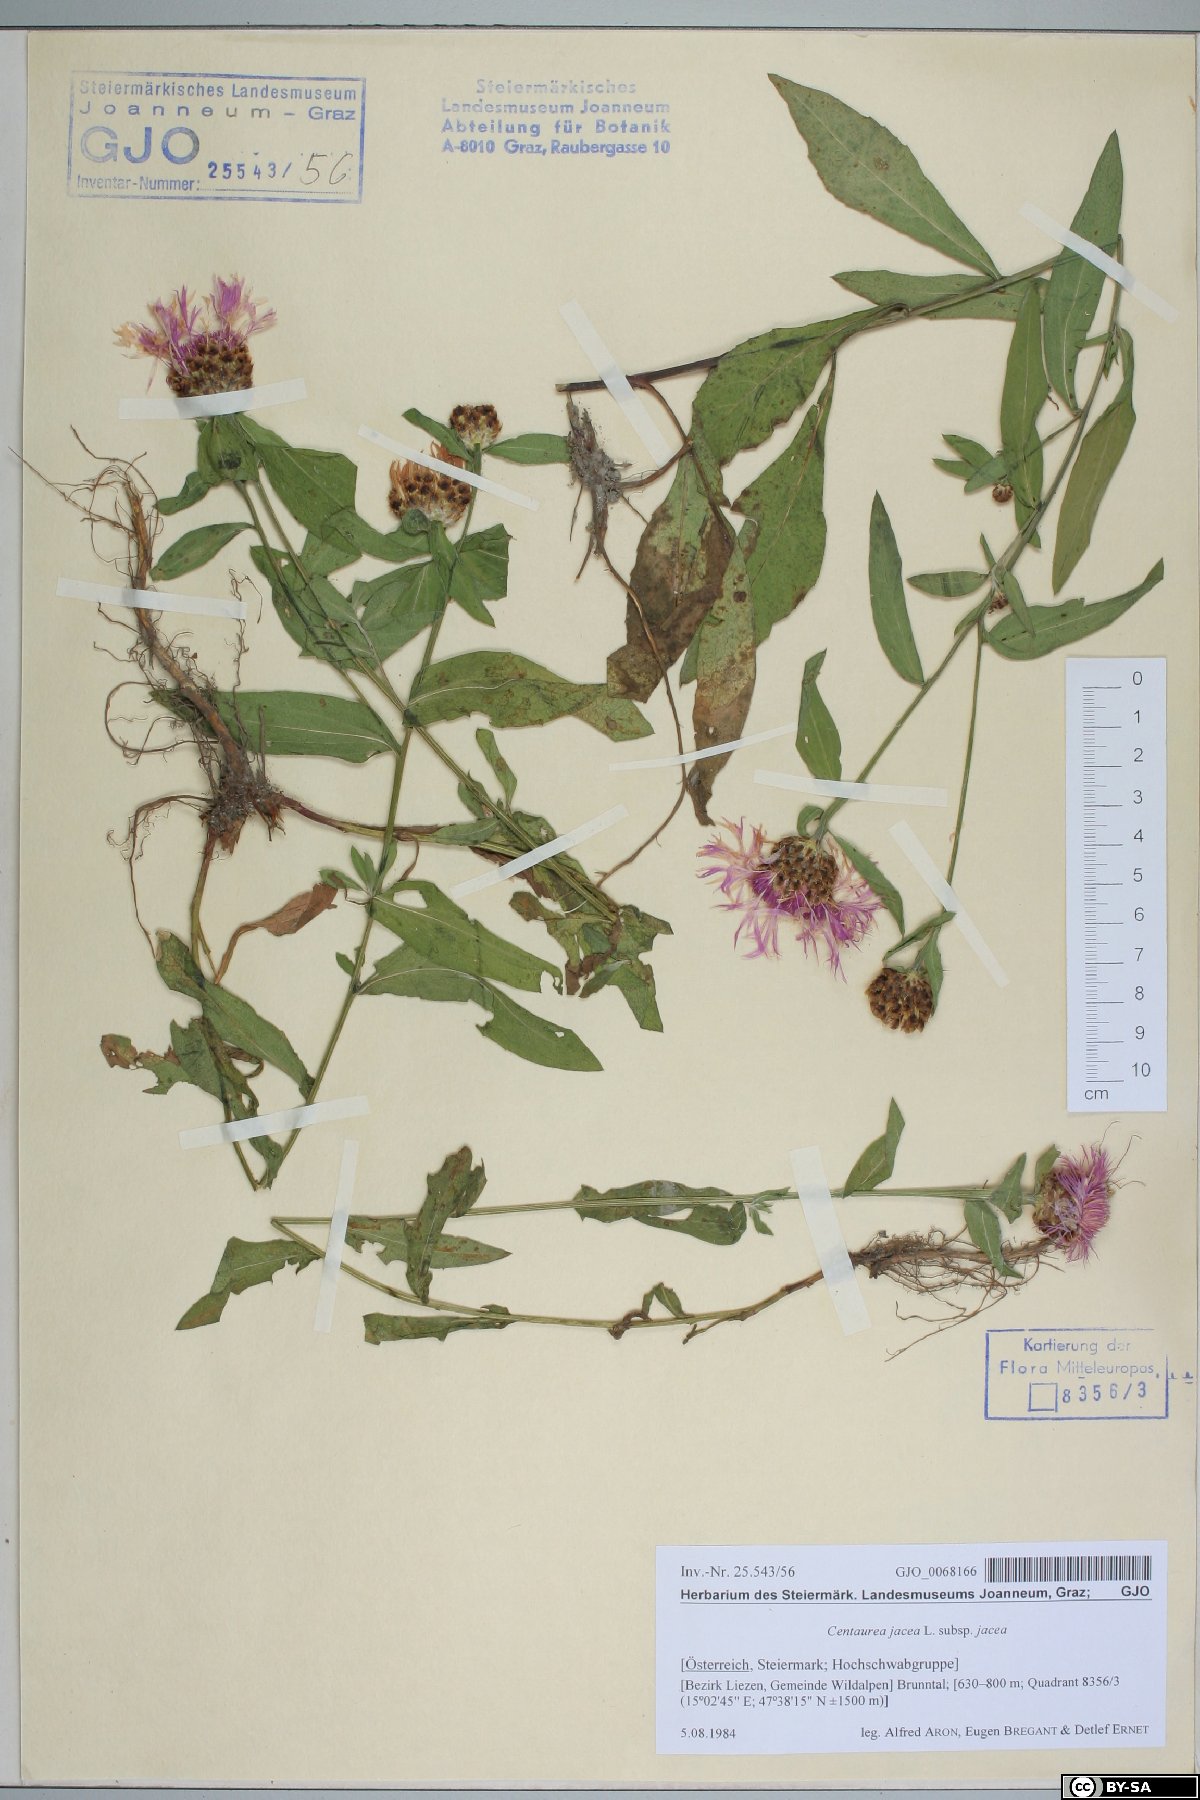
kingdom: Plantae
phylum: Tracheophyta
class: Magnoliopsida
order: Asterales
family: Asteraceae
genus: Centaurea
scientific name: Centaurea jacea
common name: Brown knapweed
